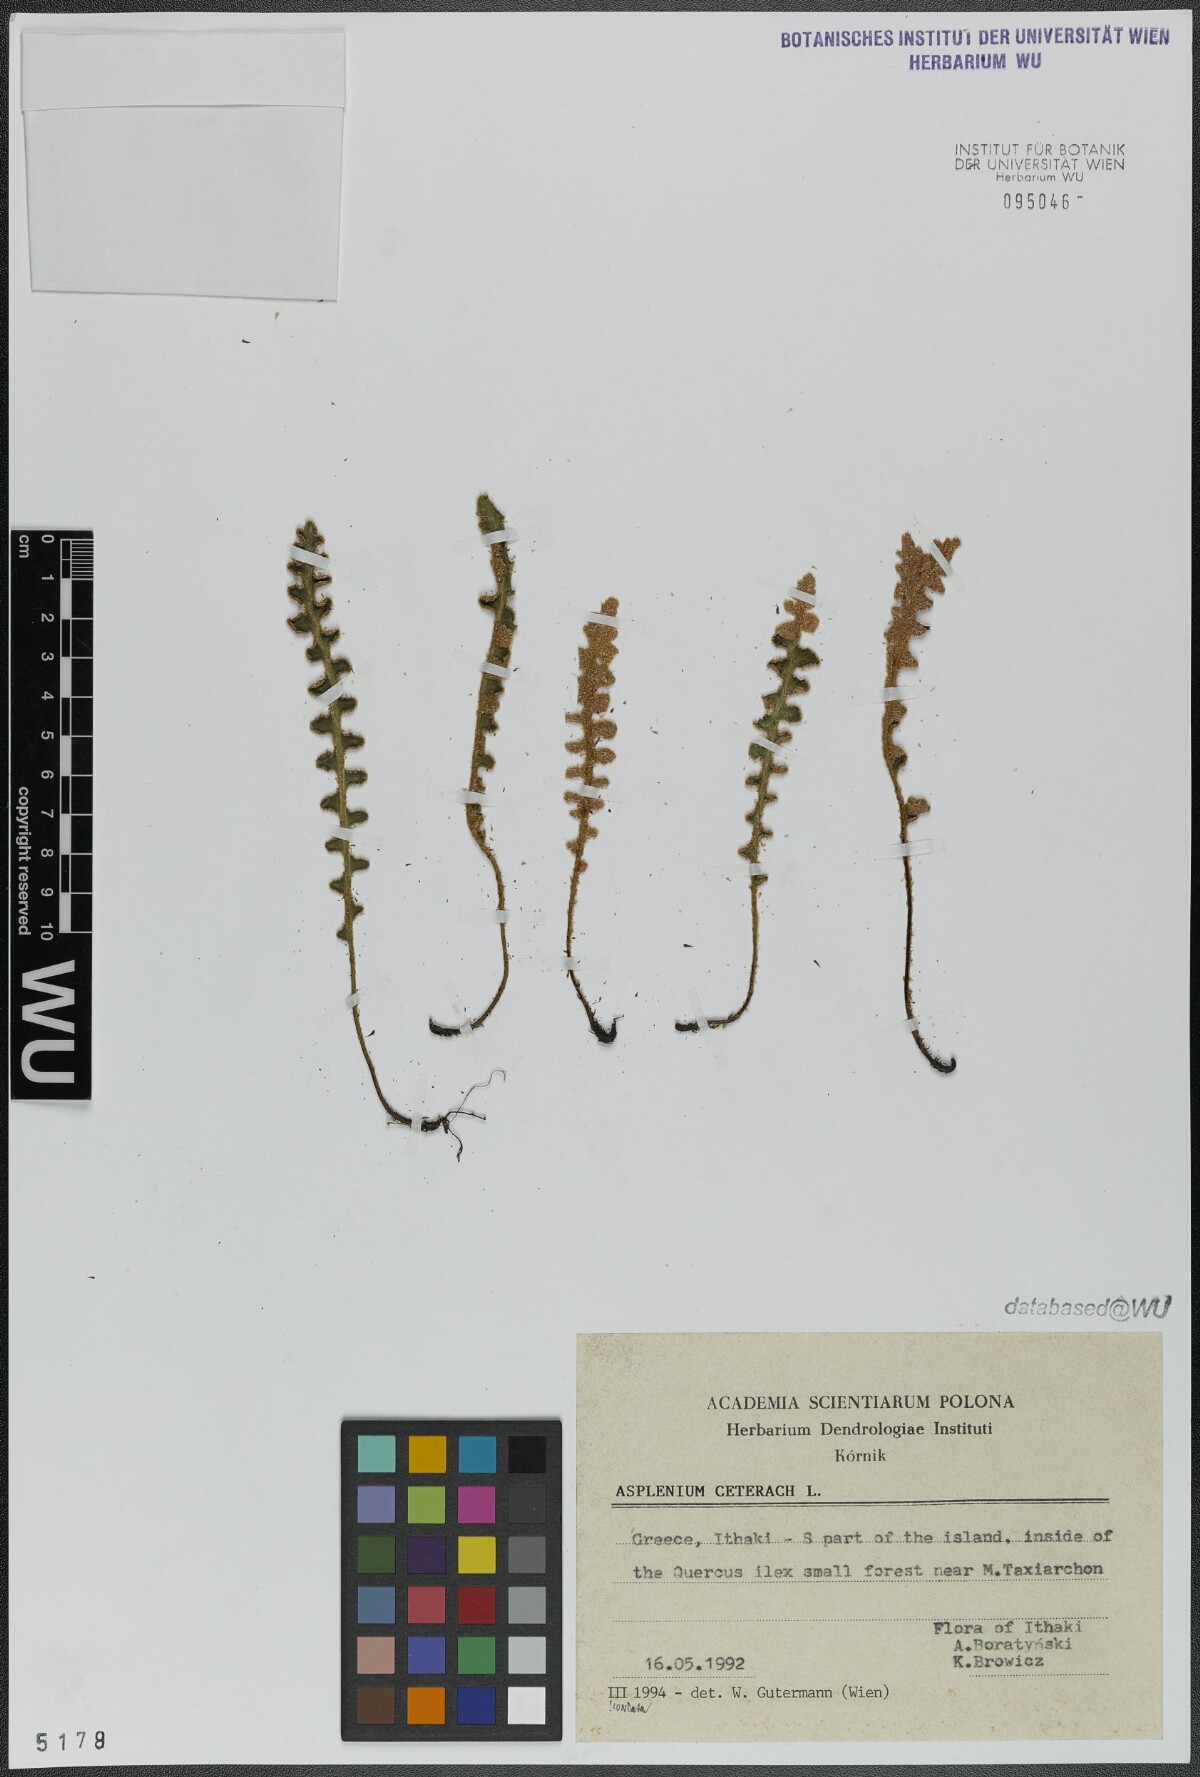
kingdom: Plantae
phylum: Tracheophyta
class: Polypodiopsida
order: Polypodiales
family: Aspleniaceae
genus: Asplenium
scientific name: Asplenium ceterach
